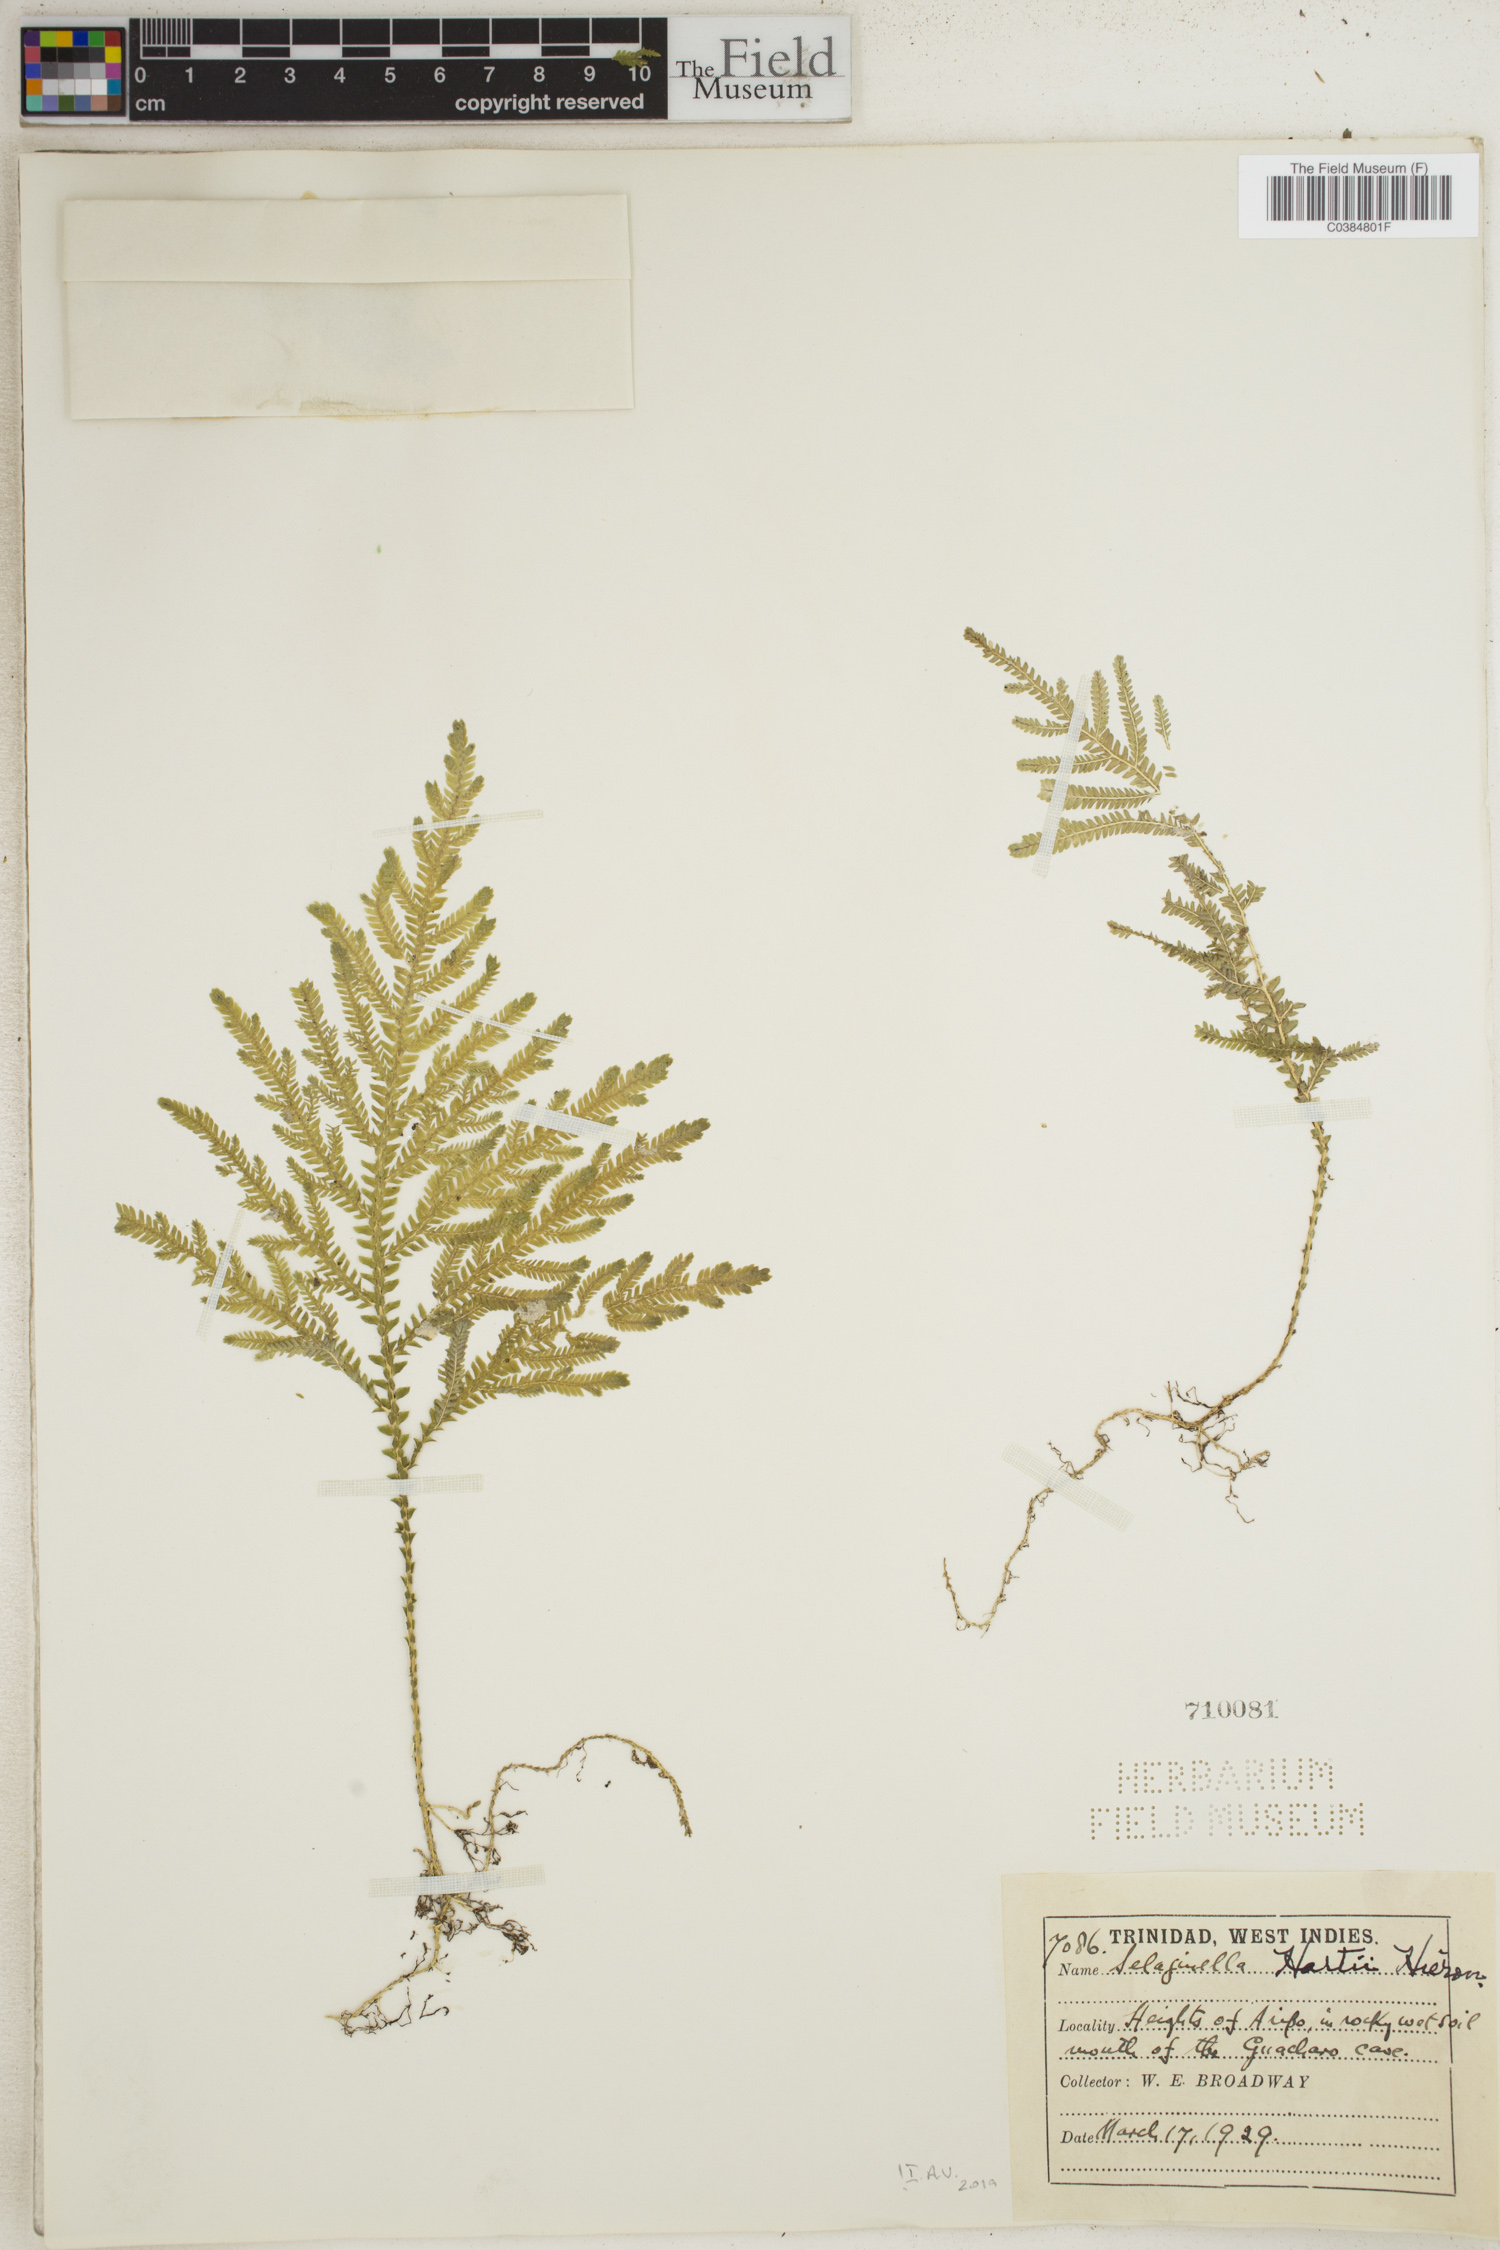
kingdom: Plantae
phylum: Tracheophyta
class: Lycopodiopsida
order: Selaginellales
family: Selaginellaceae
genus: Selaginella
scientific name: Selaginella hartii
